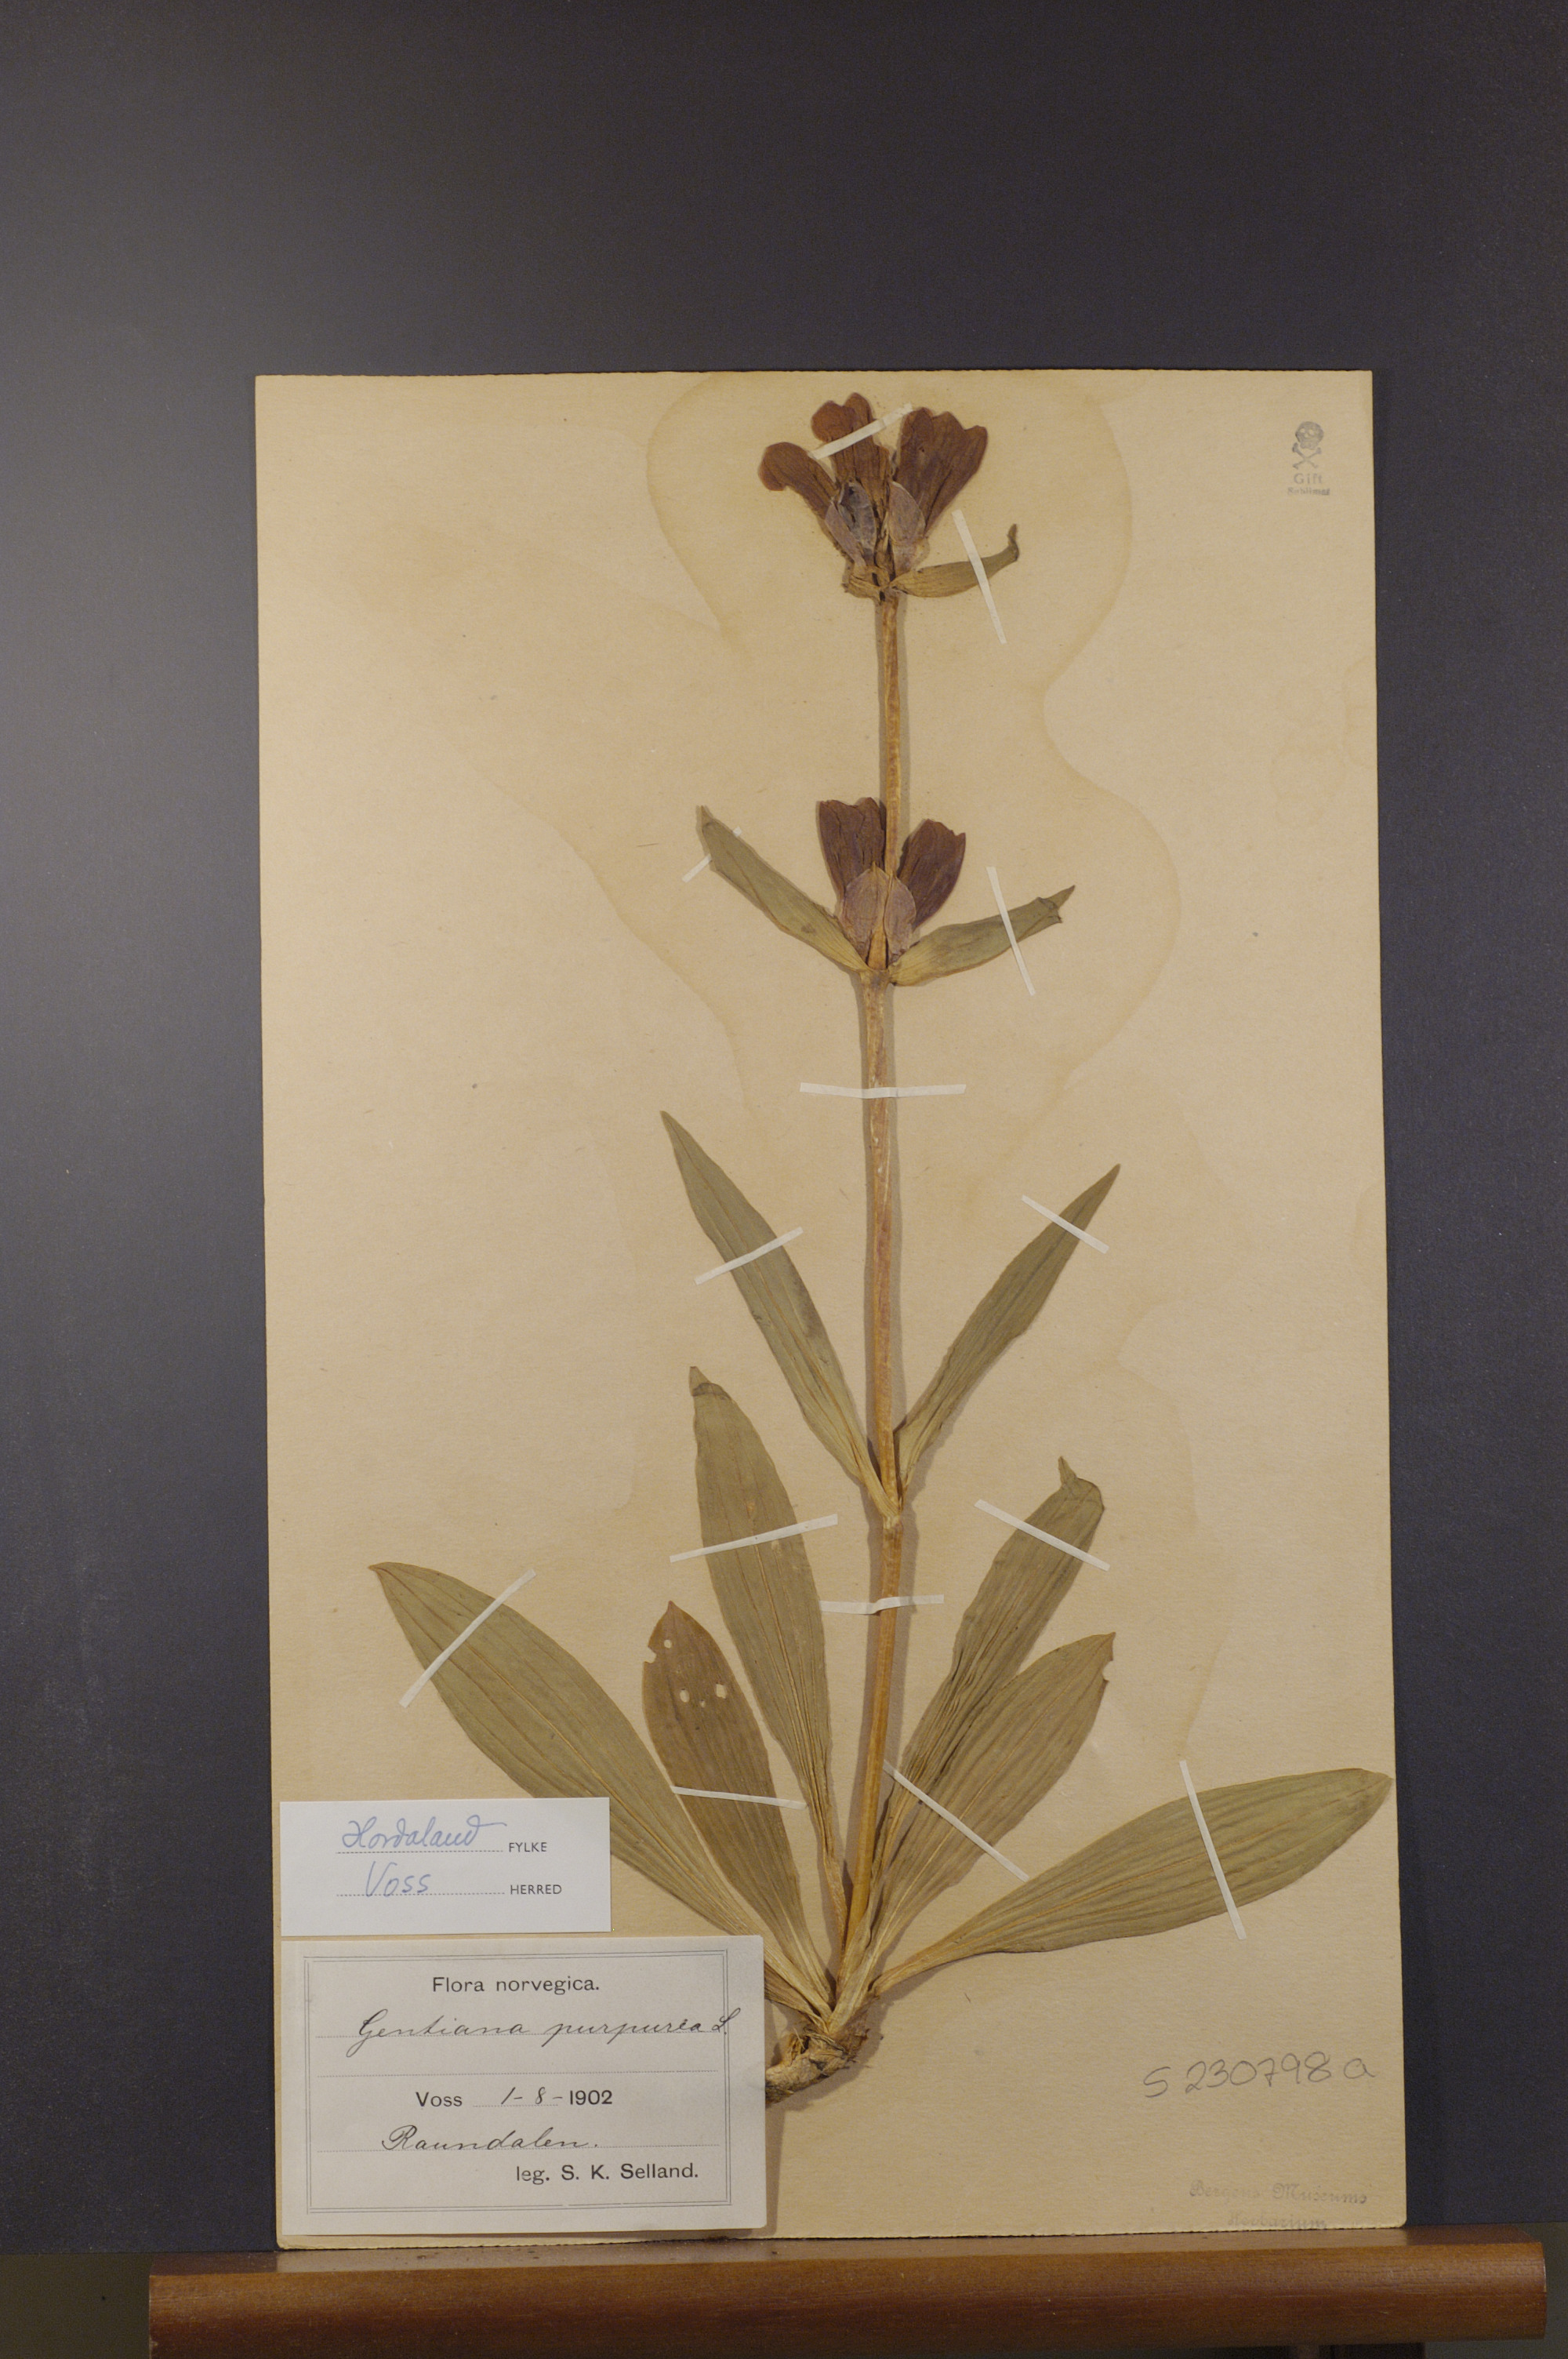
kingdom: Plantae
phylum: Tracheophyta
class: Magnoliopsida
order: Gentianales
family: Gentianaceae
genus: Gentiana
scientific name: Gentiana purpurea
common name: Purple gentian
